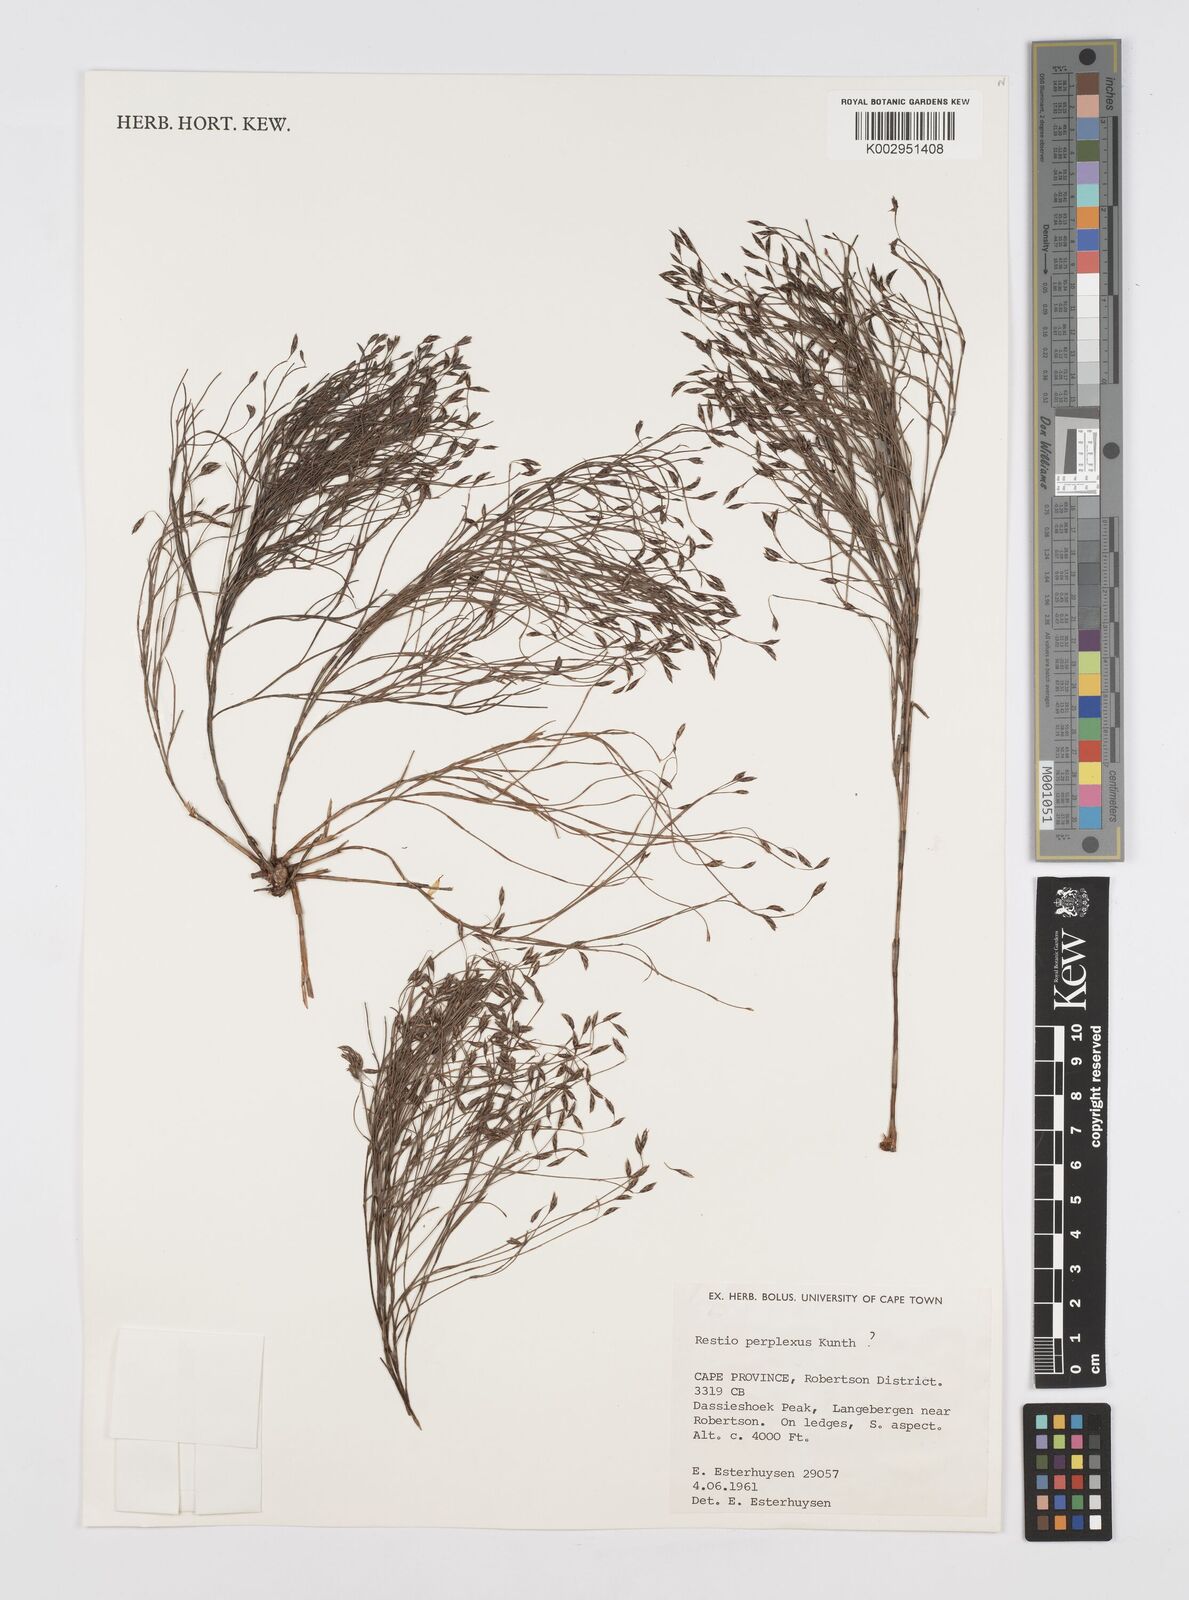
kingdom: Plantae
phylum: Tracheophyta
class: Liliopsida
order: Poales
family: Restionaceae
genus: Restio
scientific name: Restio perplexus
